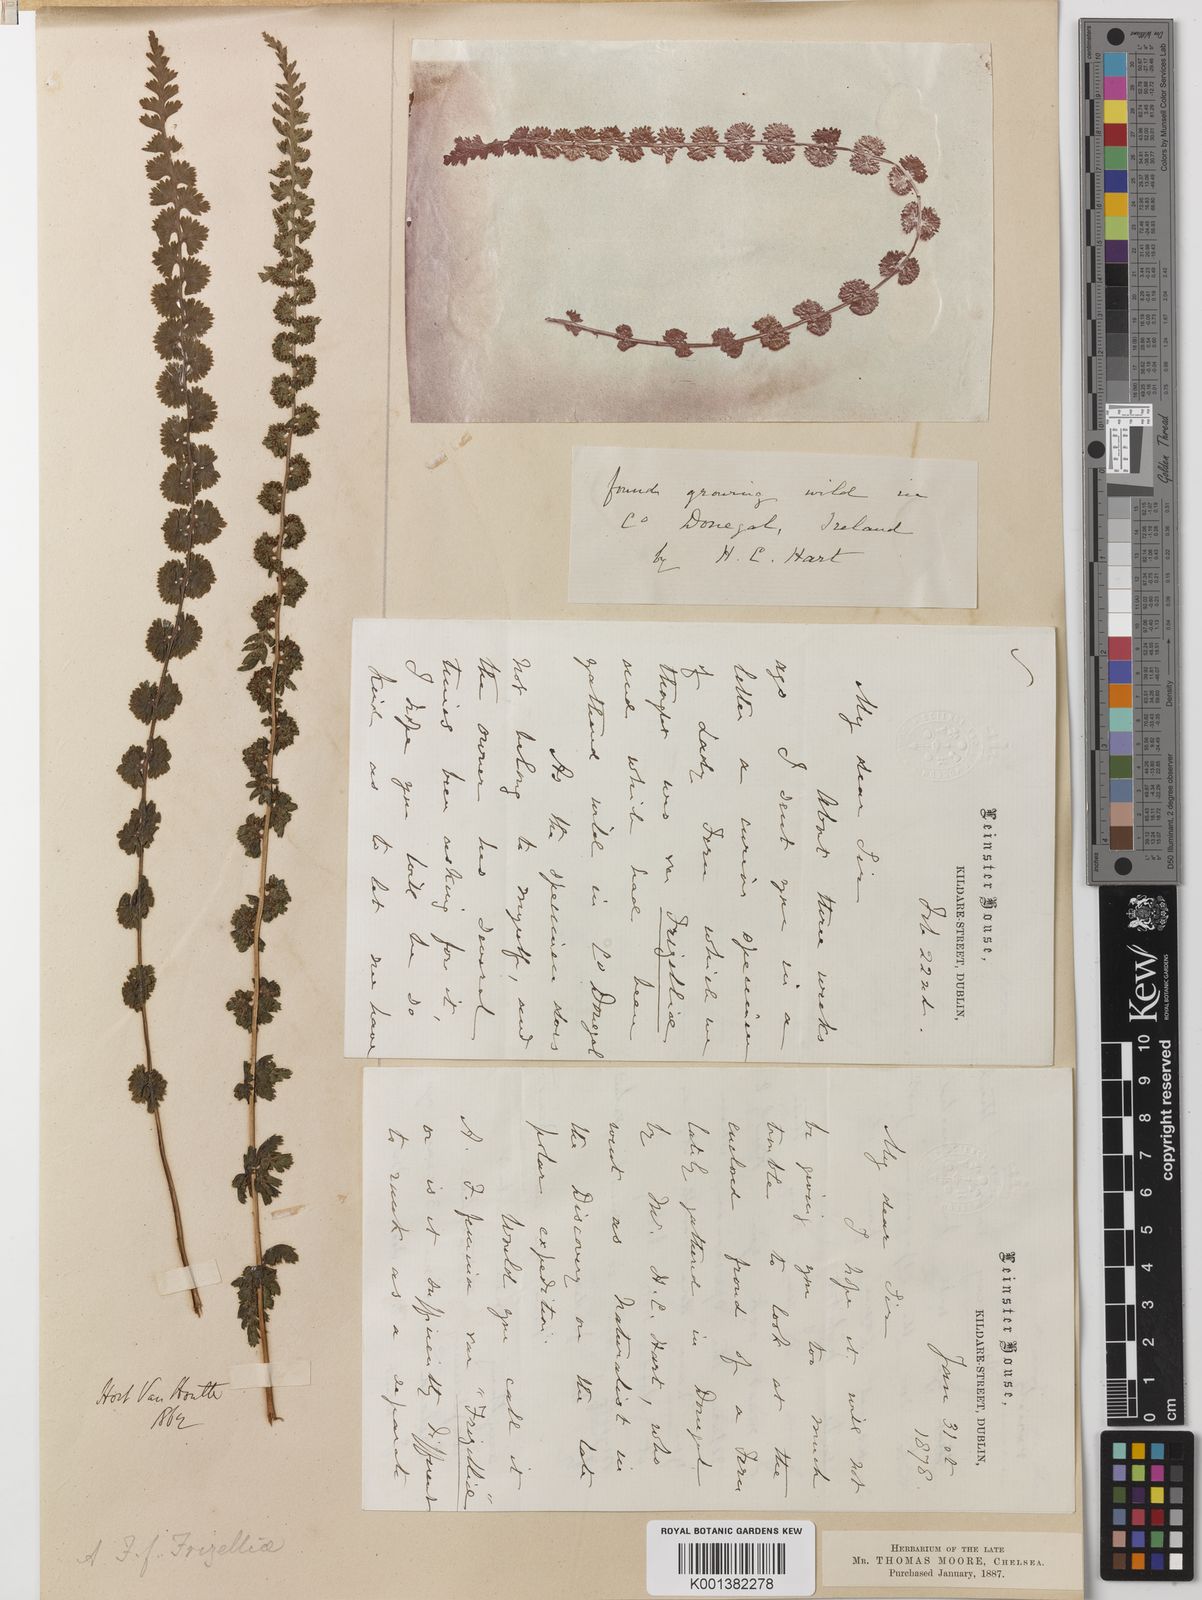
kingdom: Plantae
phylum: Tracheophyta
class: Polypodiopsida
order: Polypodiales
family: Athyriaceae
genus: Athyrium
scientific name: Athyrium filix-femina
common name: Lady fern
